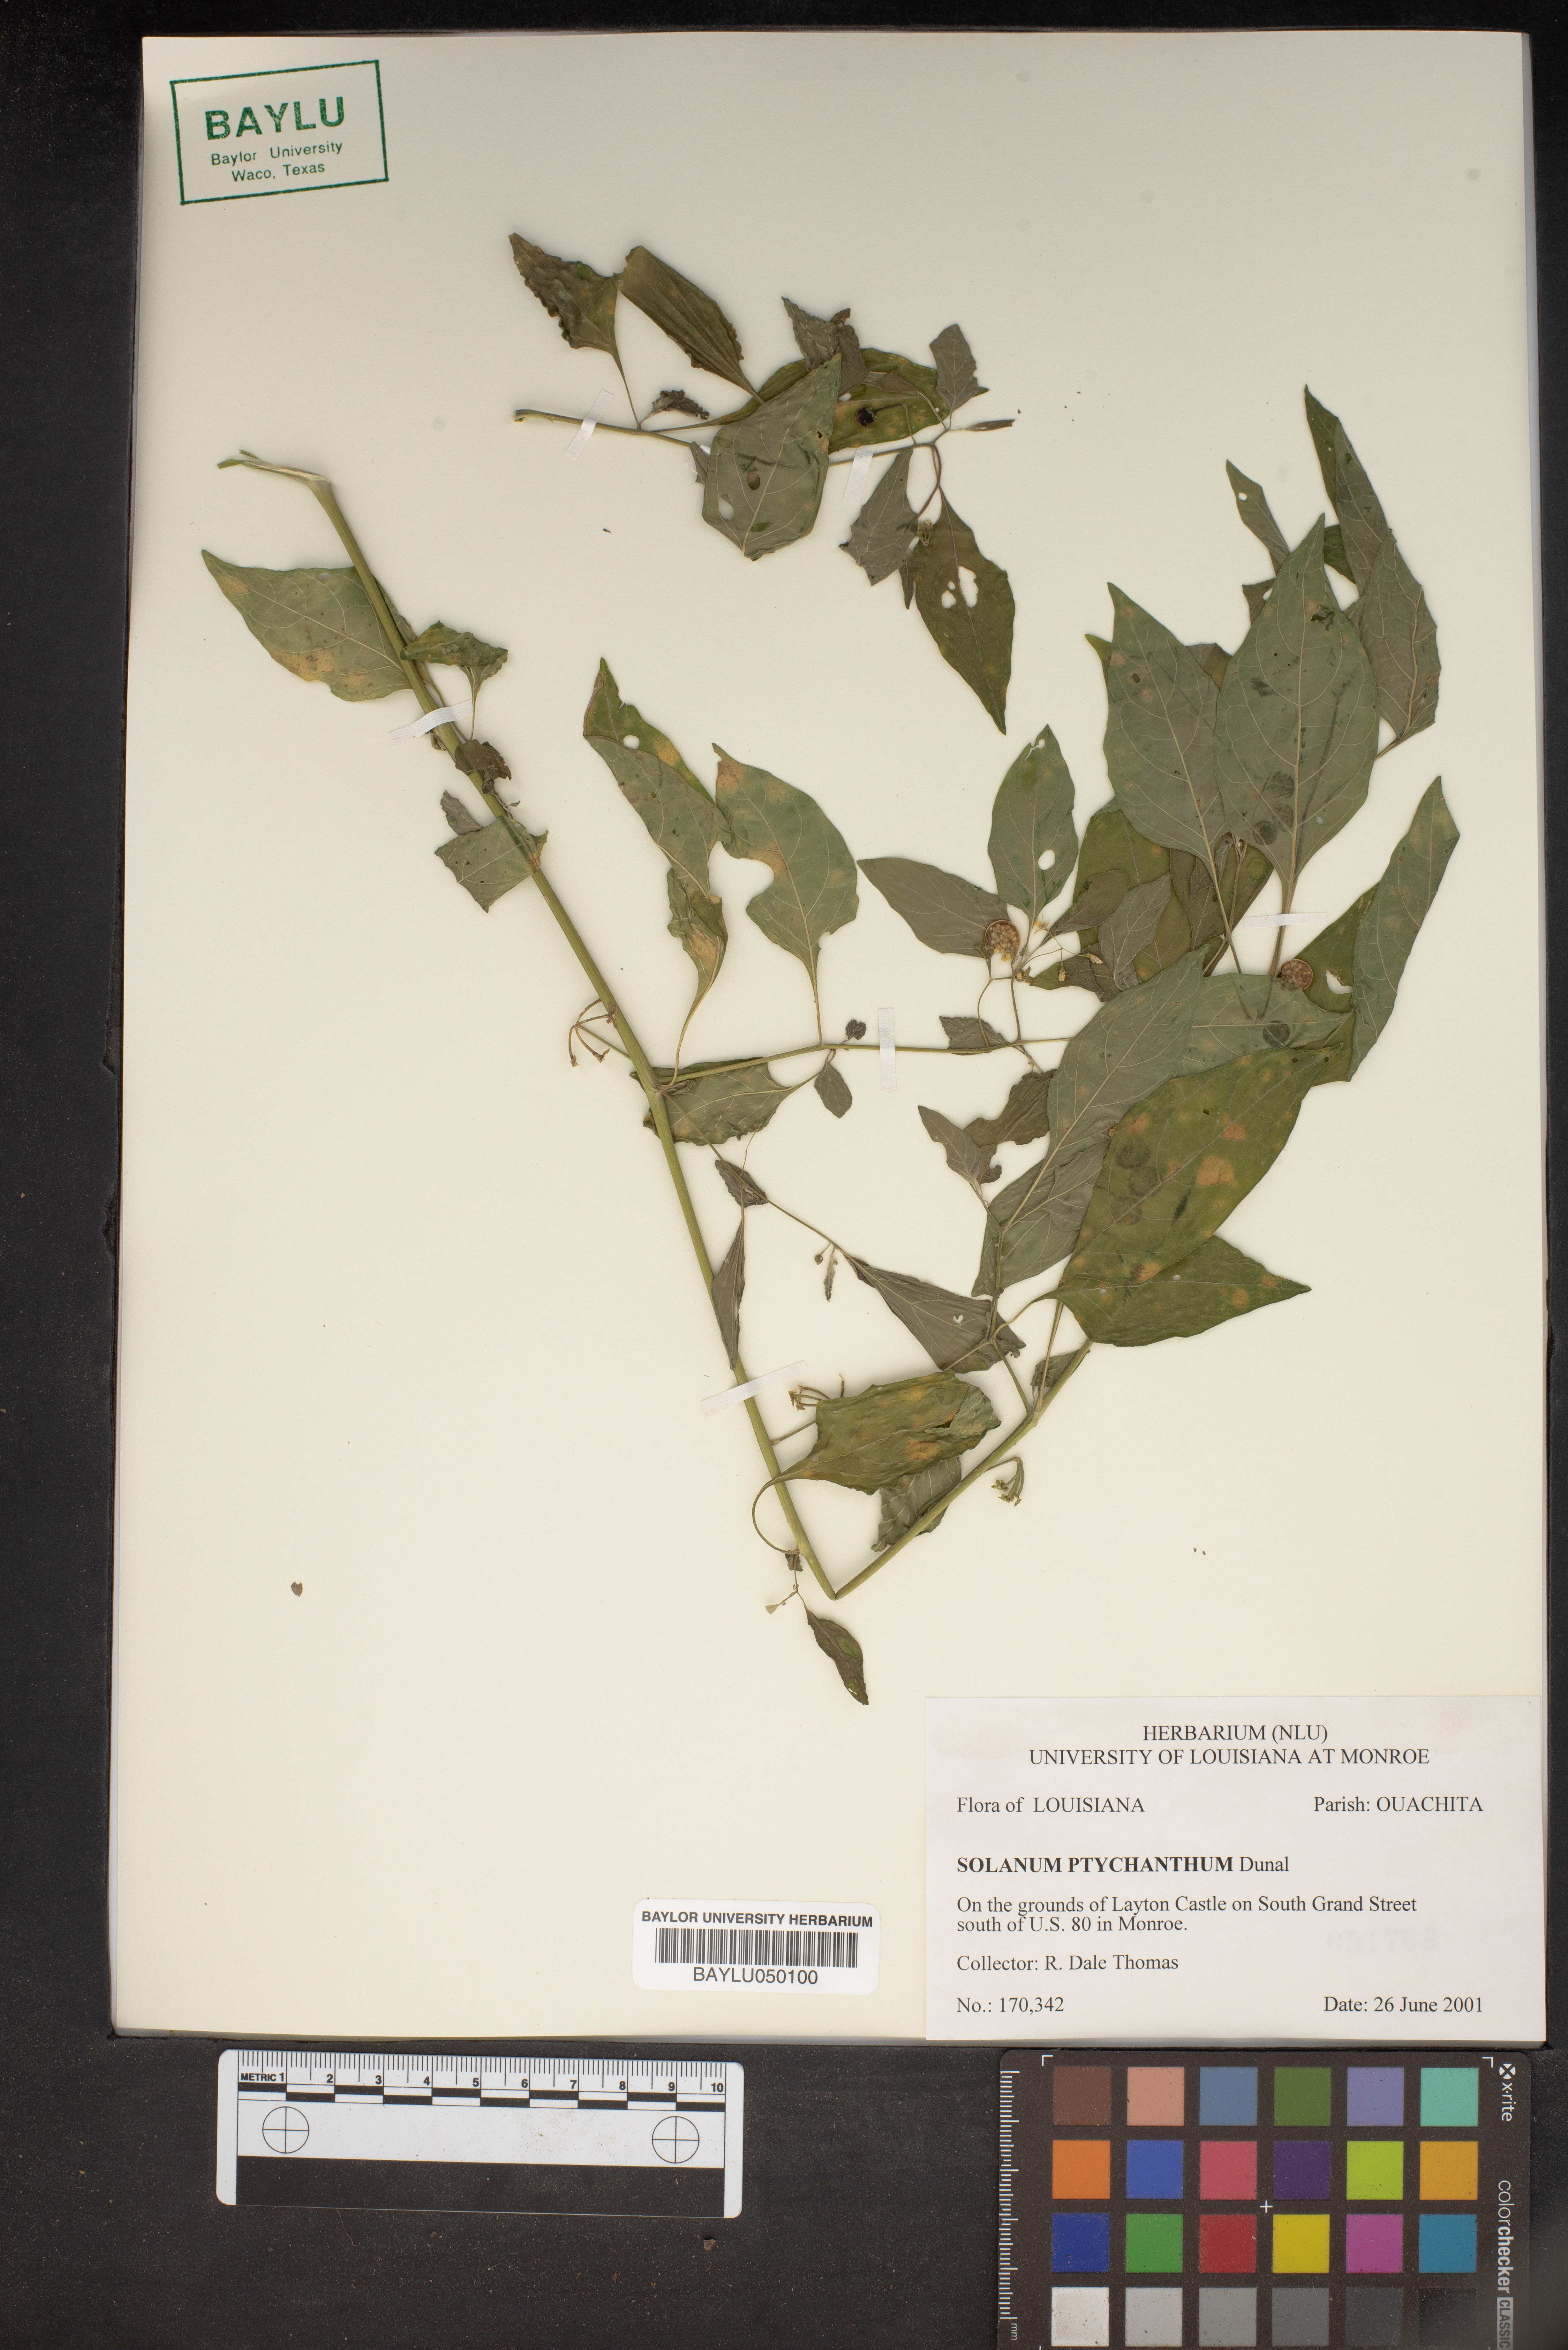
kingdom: Plantae
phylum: Tracheophyta
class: Magnoliopsida
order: Solanales
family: Solanaceae
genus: Solanum
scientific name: Solanum americanum
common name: American black nightshade
